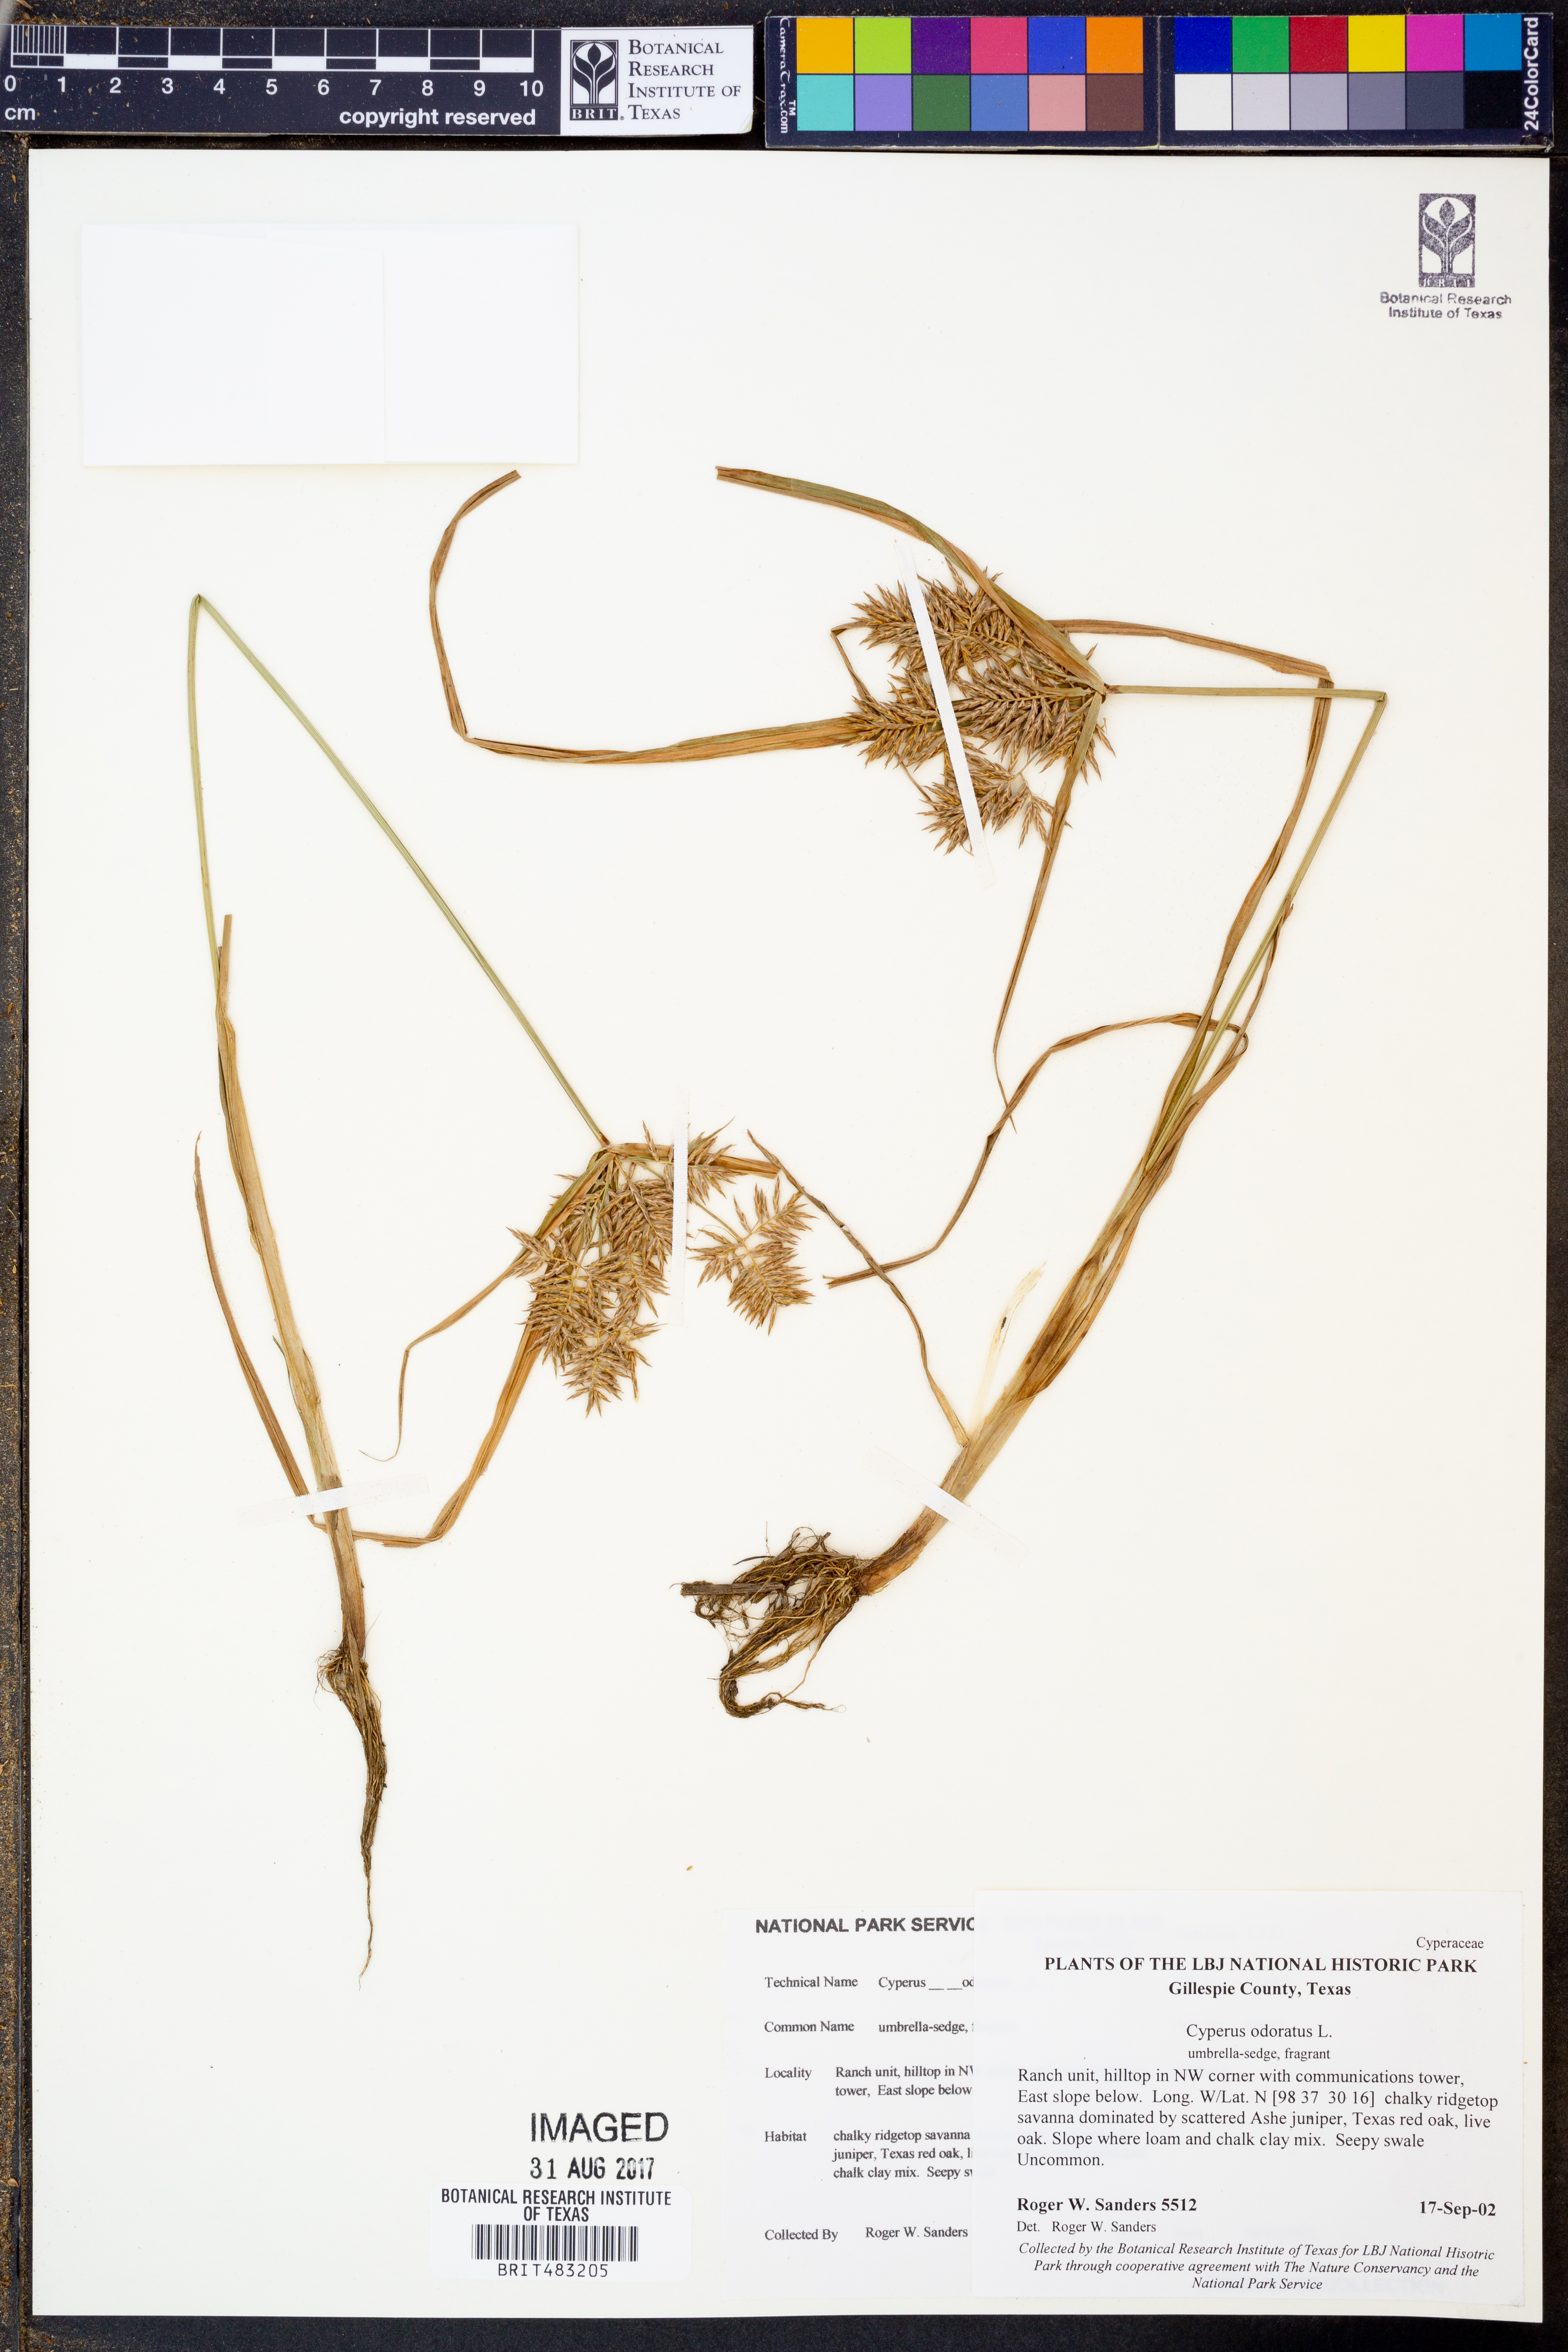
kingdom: Plantae
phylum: Tracheophyta
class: Liliopsida
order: Poales
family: Cyperaceae
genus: Cyperus
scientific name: Cyperus odoratus
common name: Fragrant flatsedge
